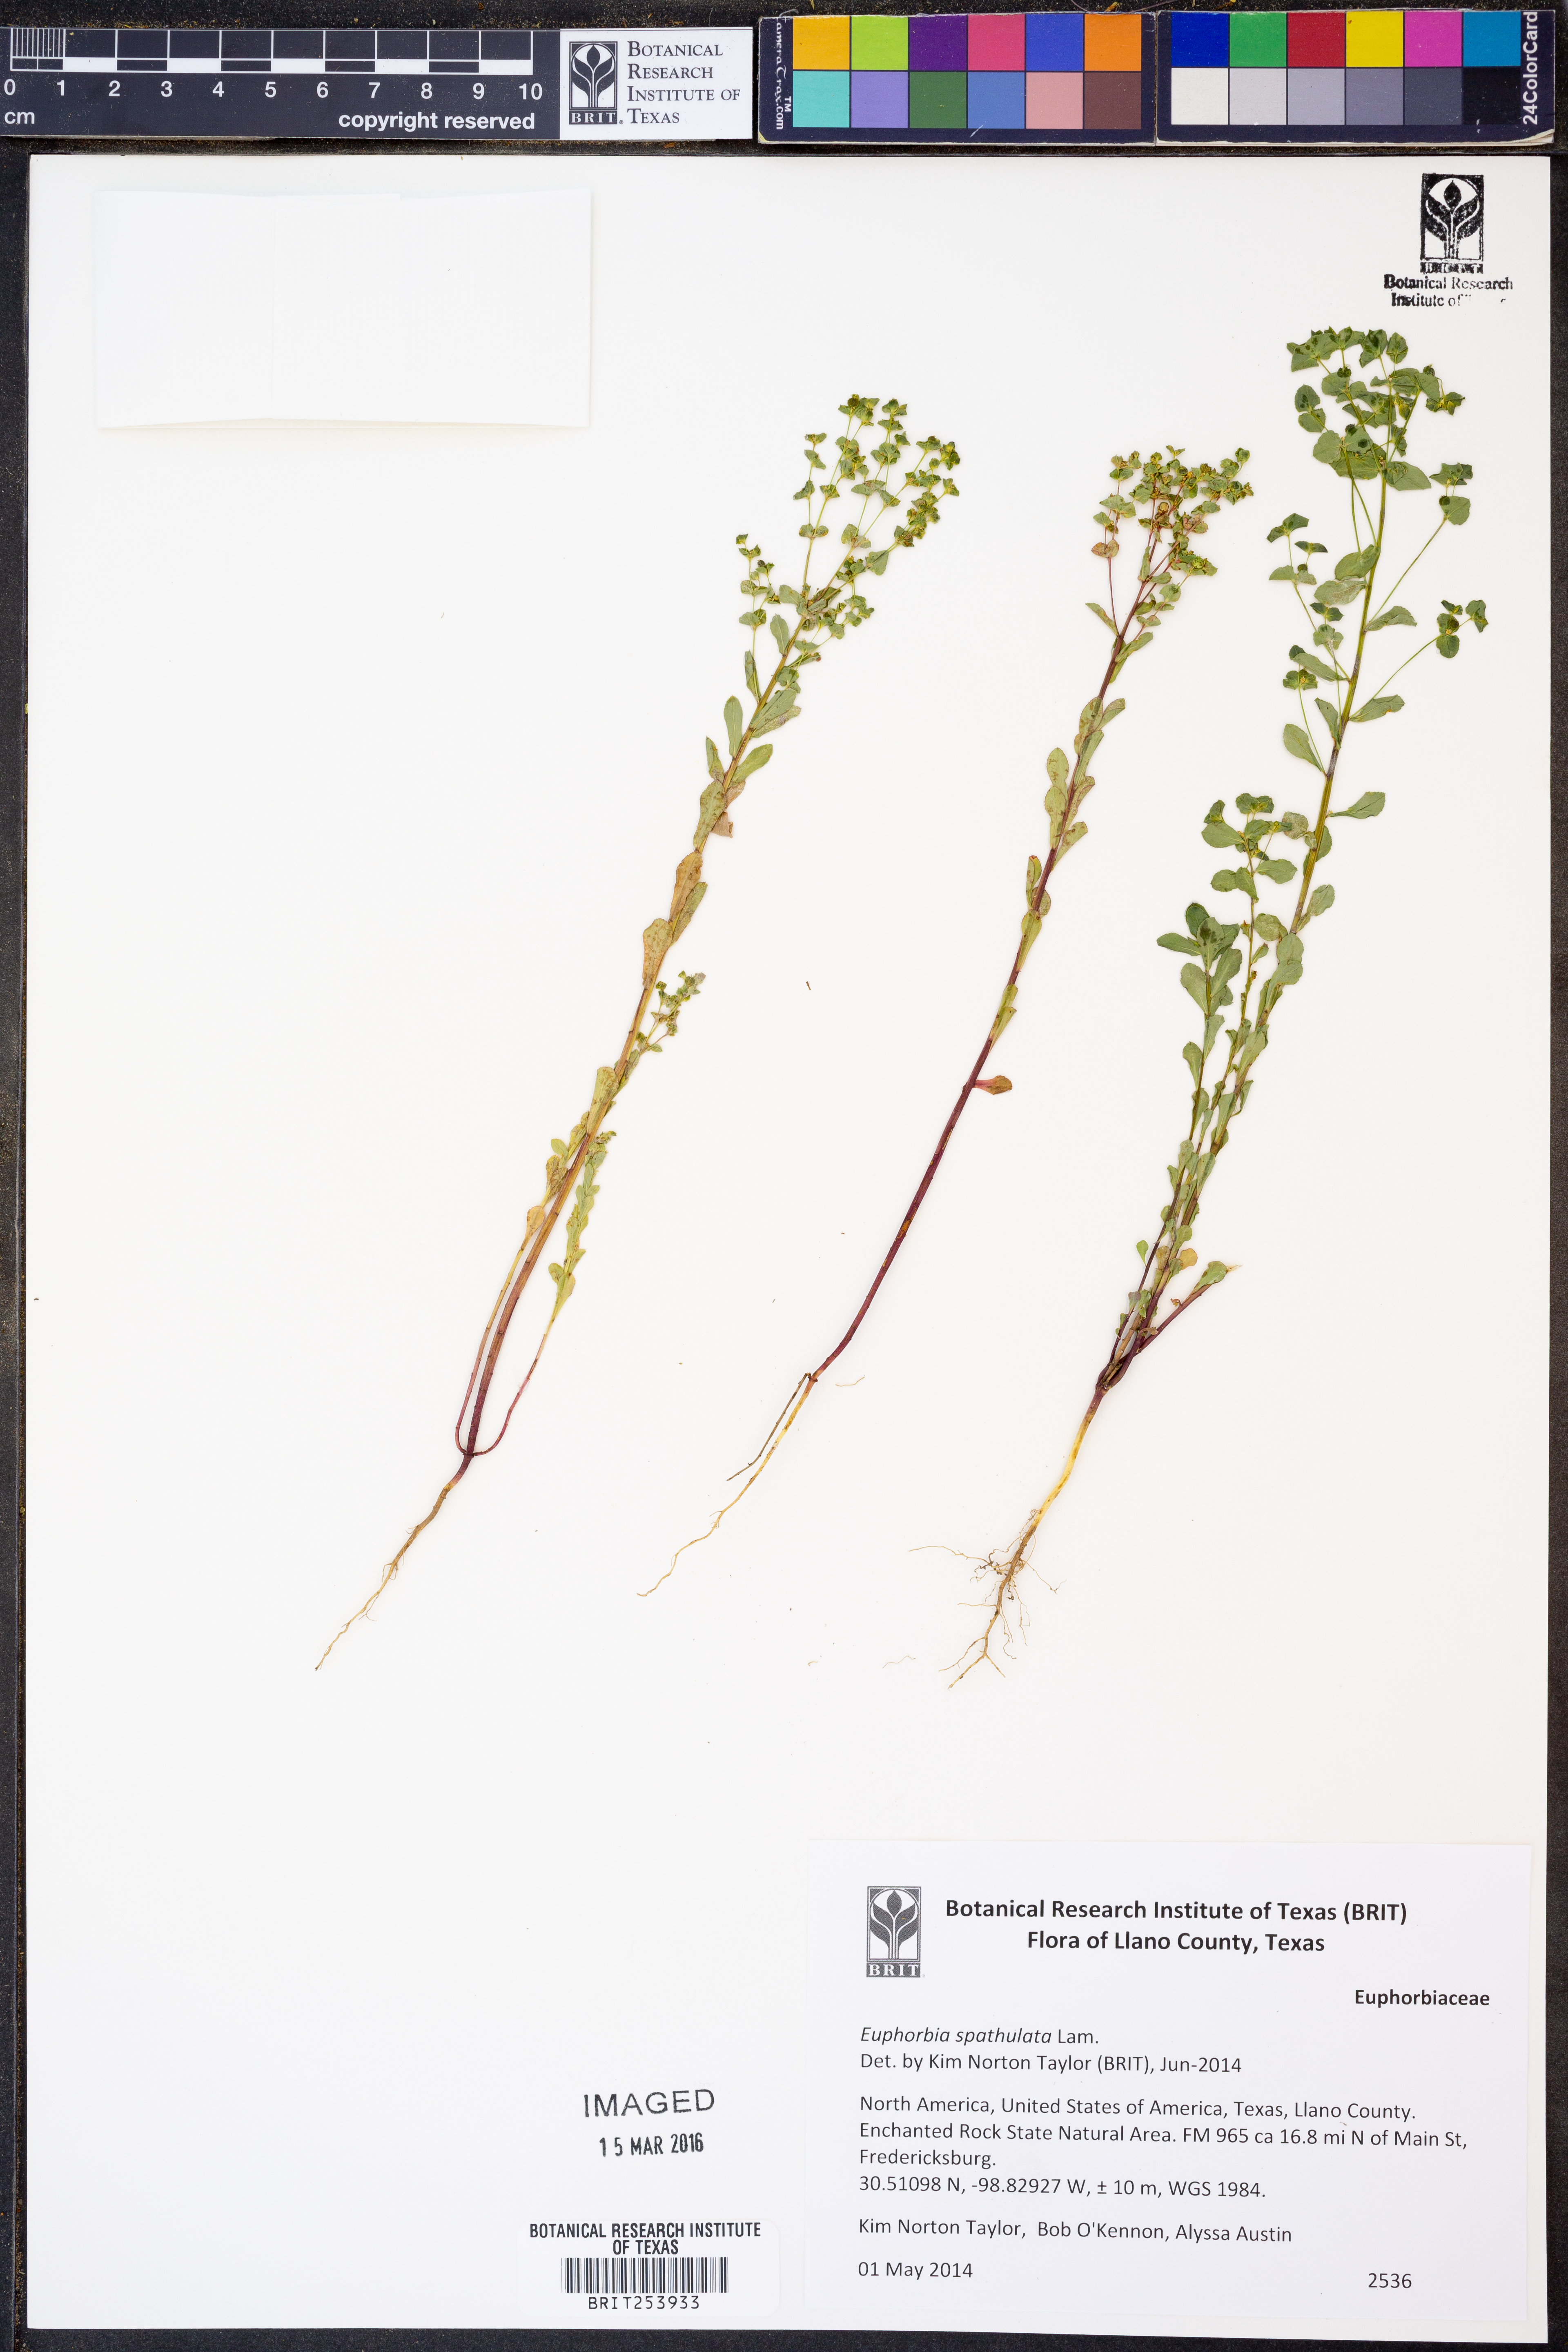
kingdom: Plantae
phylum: Tracheophyta
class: Magnoliopsida
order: Malpighiales
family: Euphorbiaceae
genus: Euphorbia
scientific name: Euphorbia spathulata
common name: Blunt spurge
